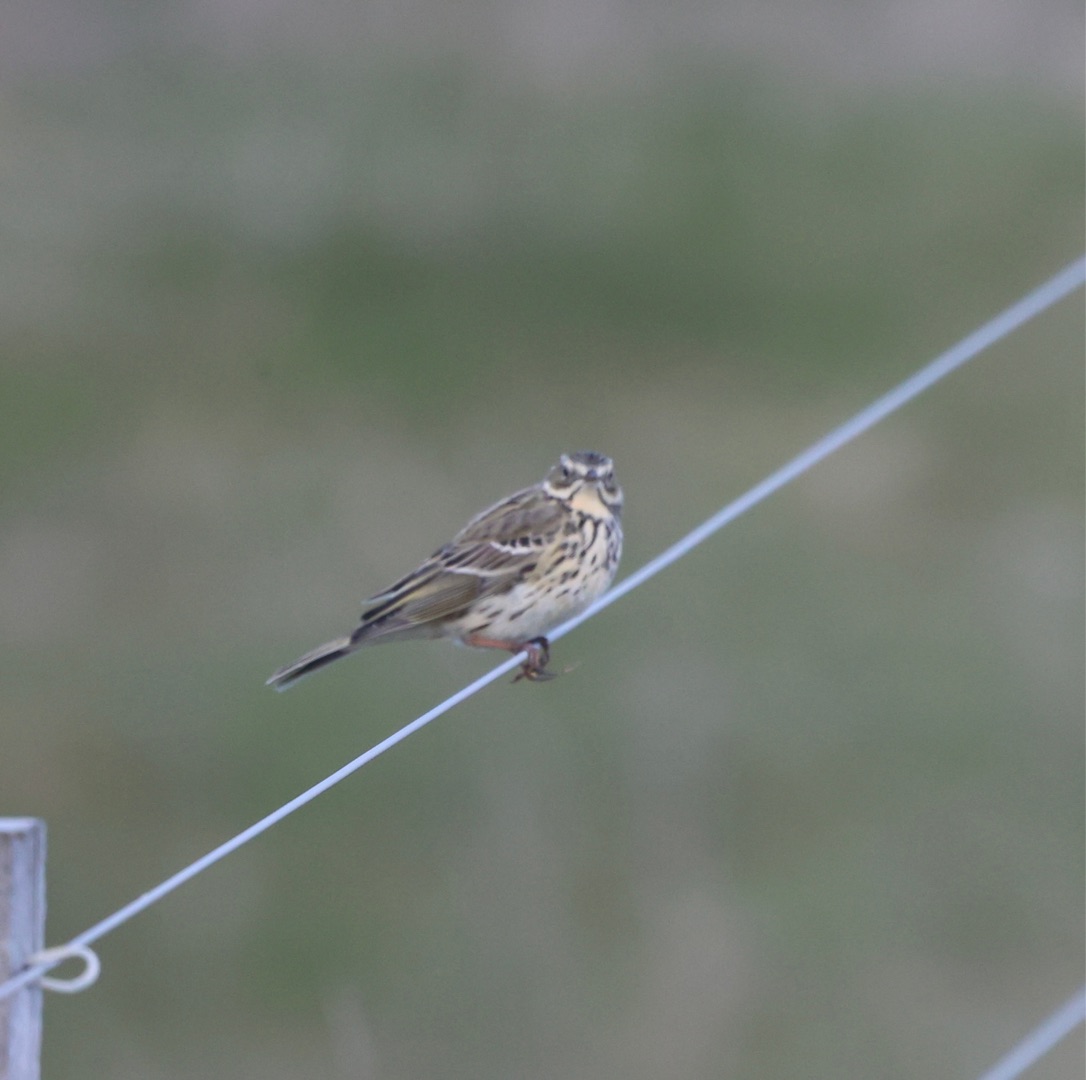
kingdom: Animalia
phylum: Chordata
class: Aves
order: Passeriformes
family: Motacillidae
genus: Anthus
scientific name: Anthus pratensis
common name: Engpiber
